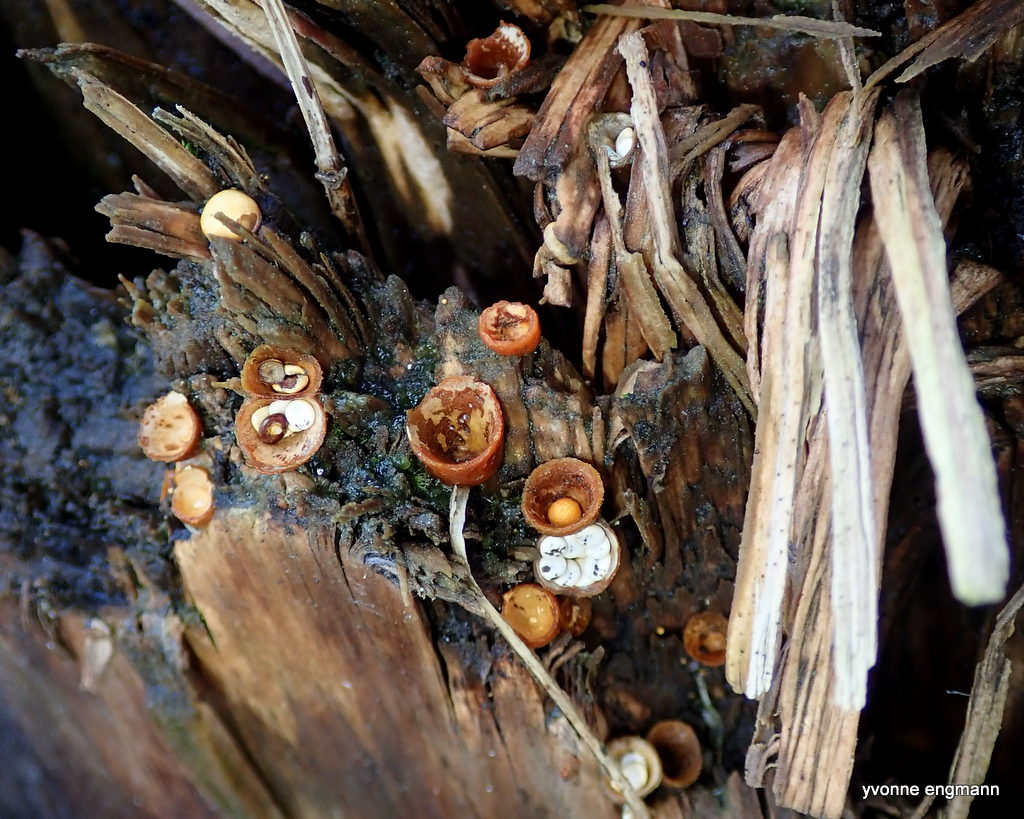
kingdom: Fungi
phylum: Basidiomycota
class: Agaricomycetes
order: Agaricales
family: Nidulariaceae
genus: Crucibulum
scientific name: Crucibulum crucibuliforme
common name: krukkesvamp
